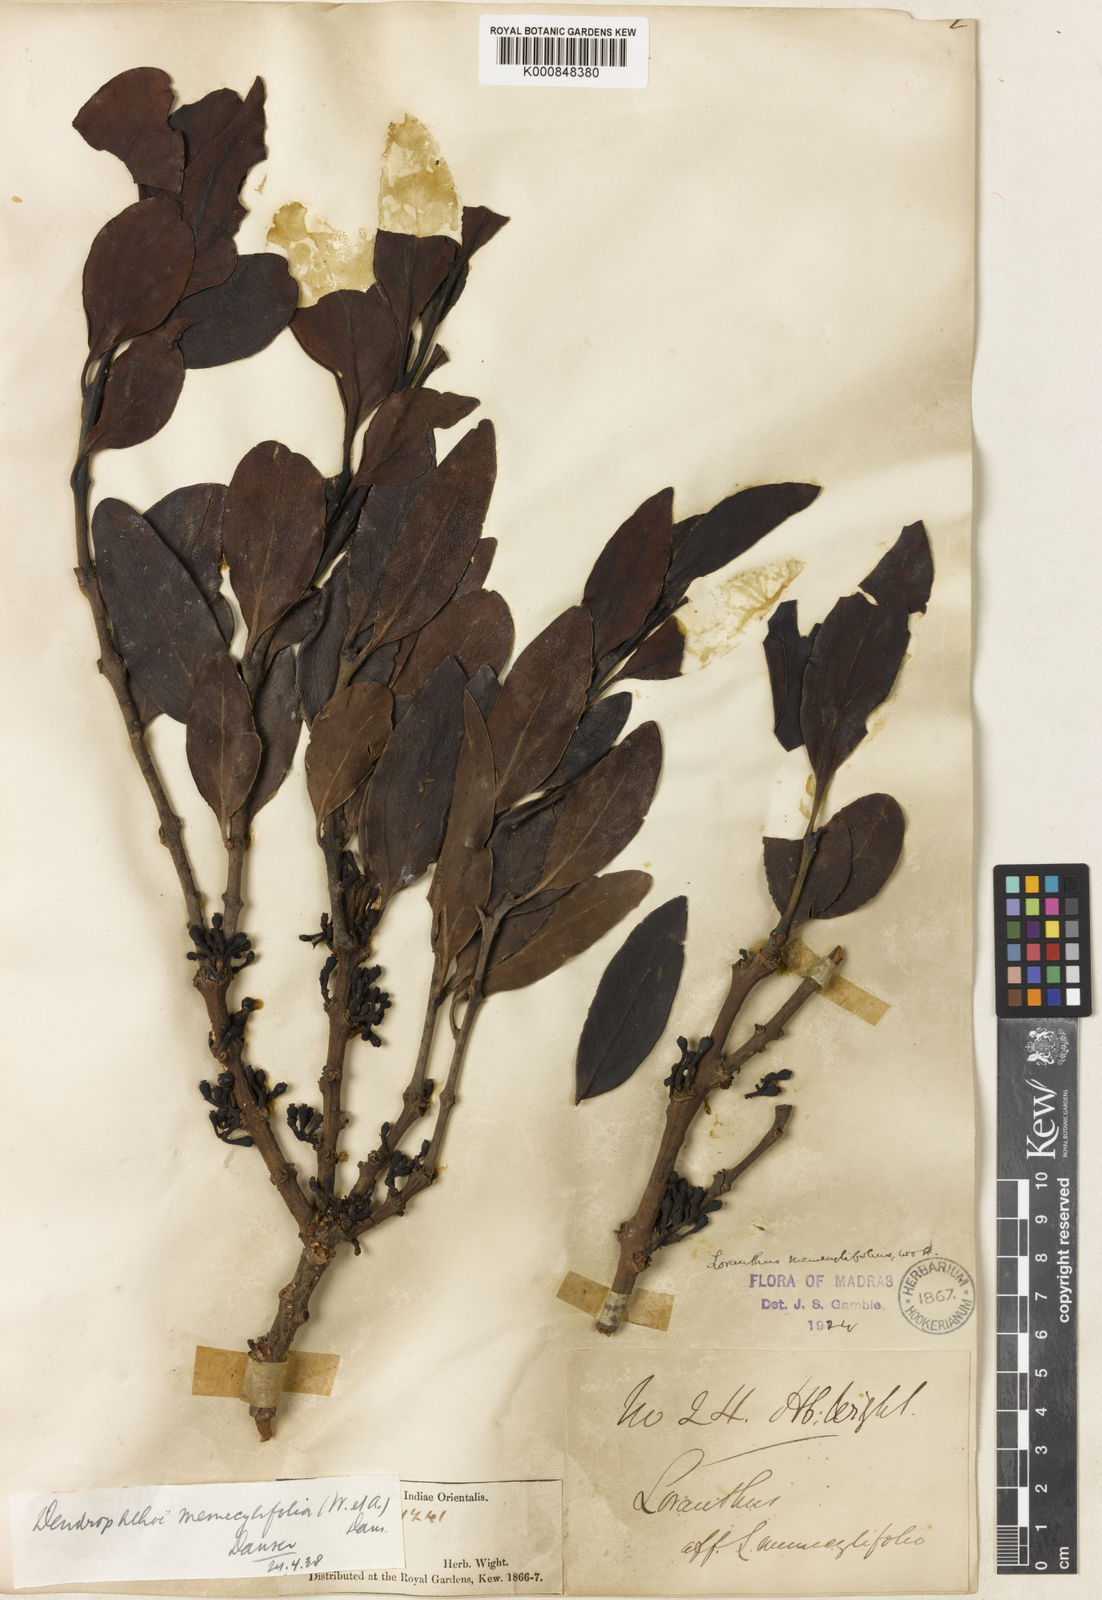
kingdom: Plantae
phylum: Tracheophyta
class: Magnoliopsida
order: Santalales
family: Loranthaceae
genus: Dendrophthoe
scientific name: Dendrophthoe memecylifolia
